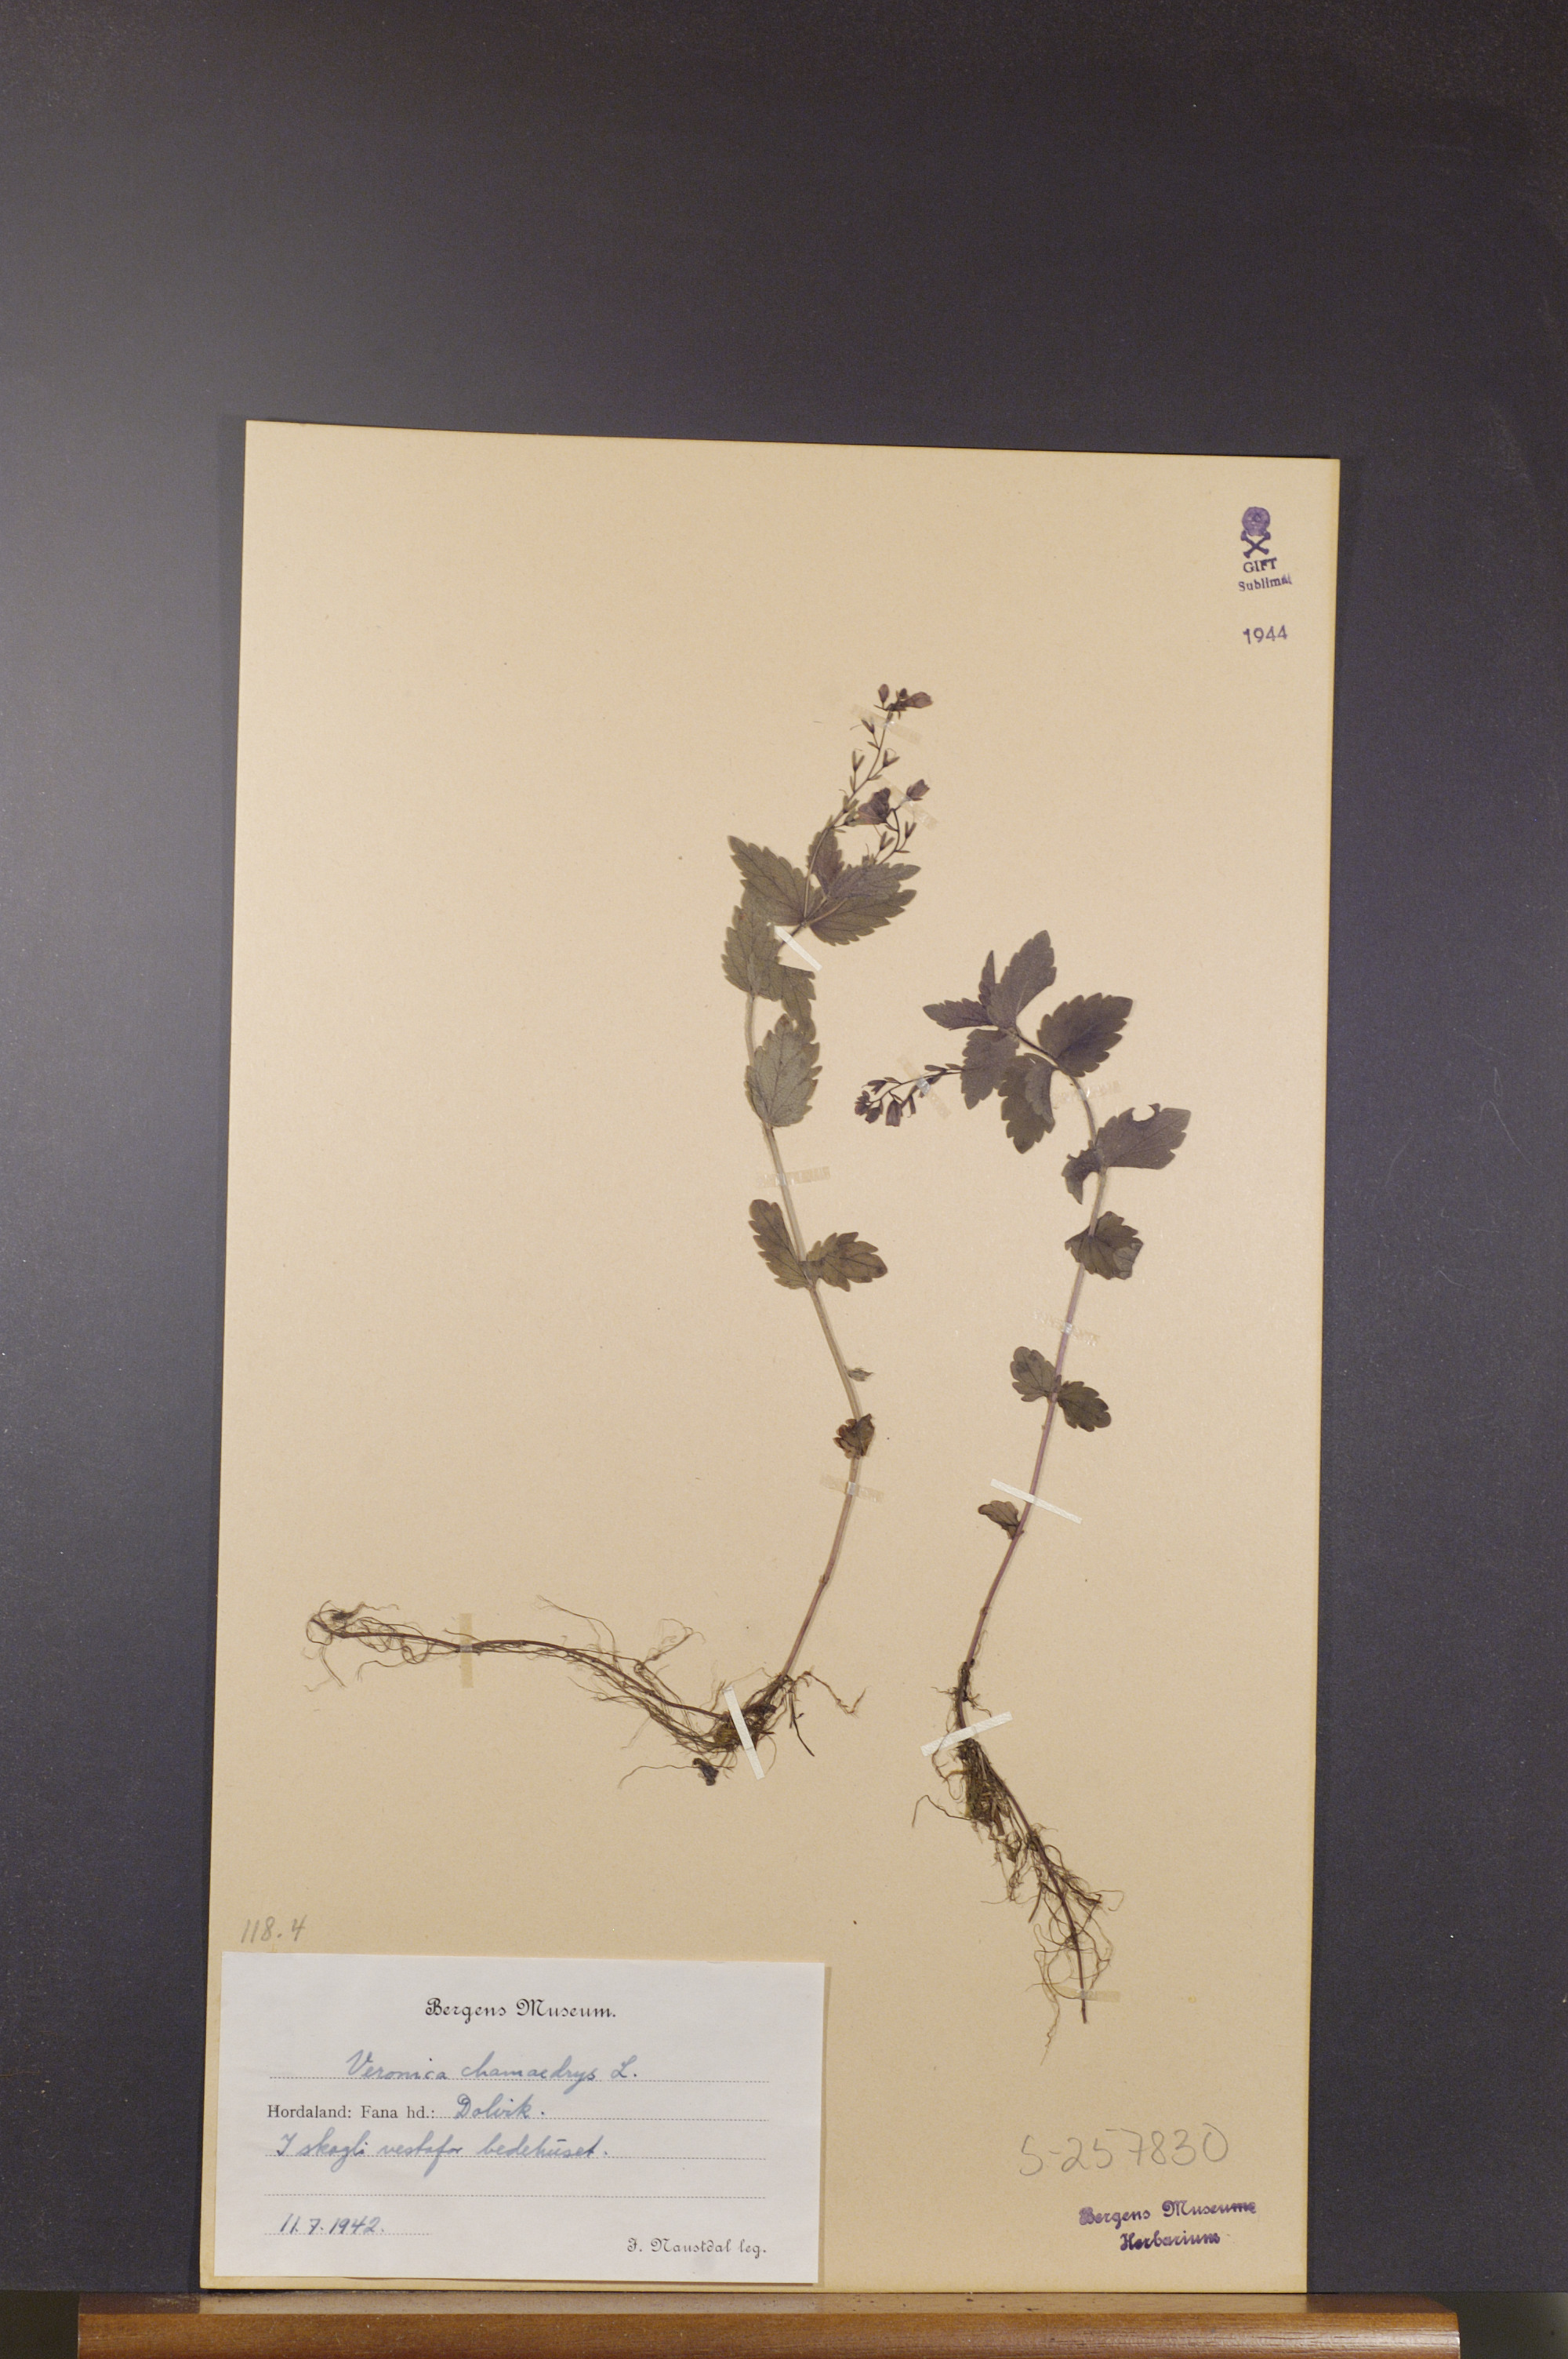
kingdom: Plantae
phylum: Tracheophyta
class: Magnoliopsida
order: Lamiales
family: Plantaginaceae
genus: Veronica
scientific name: Veronica chamaedrys
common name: Germander speedwell
